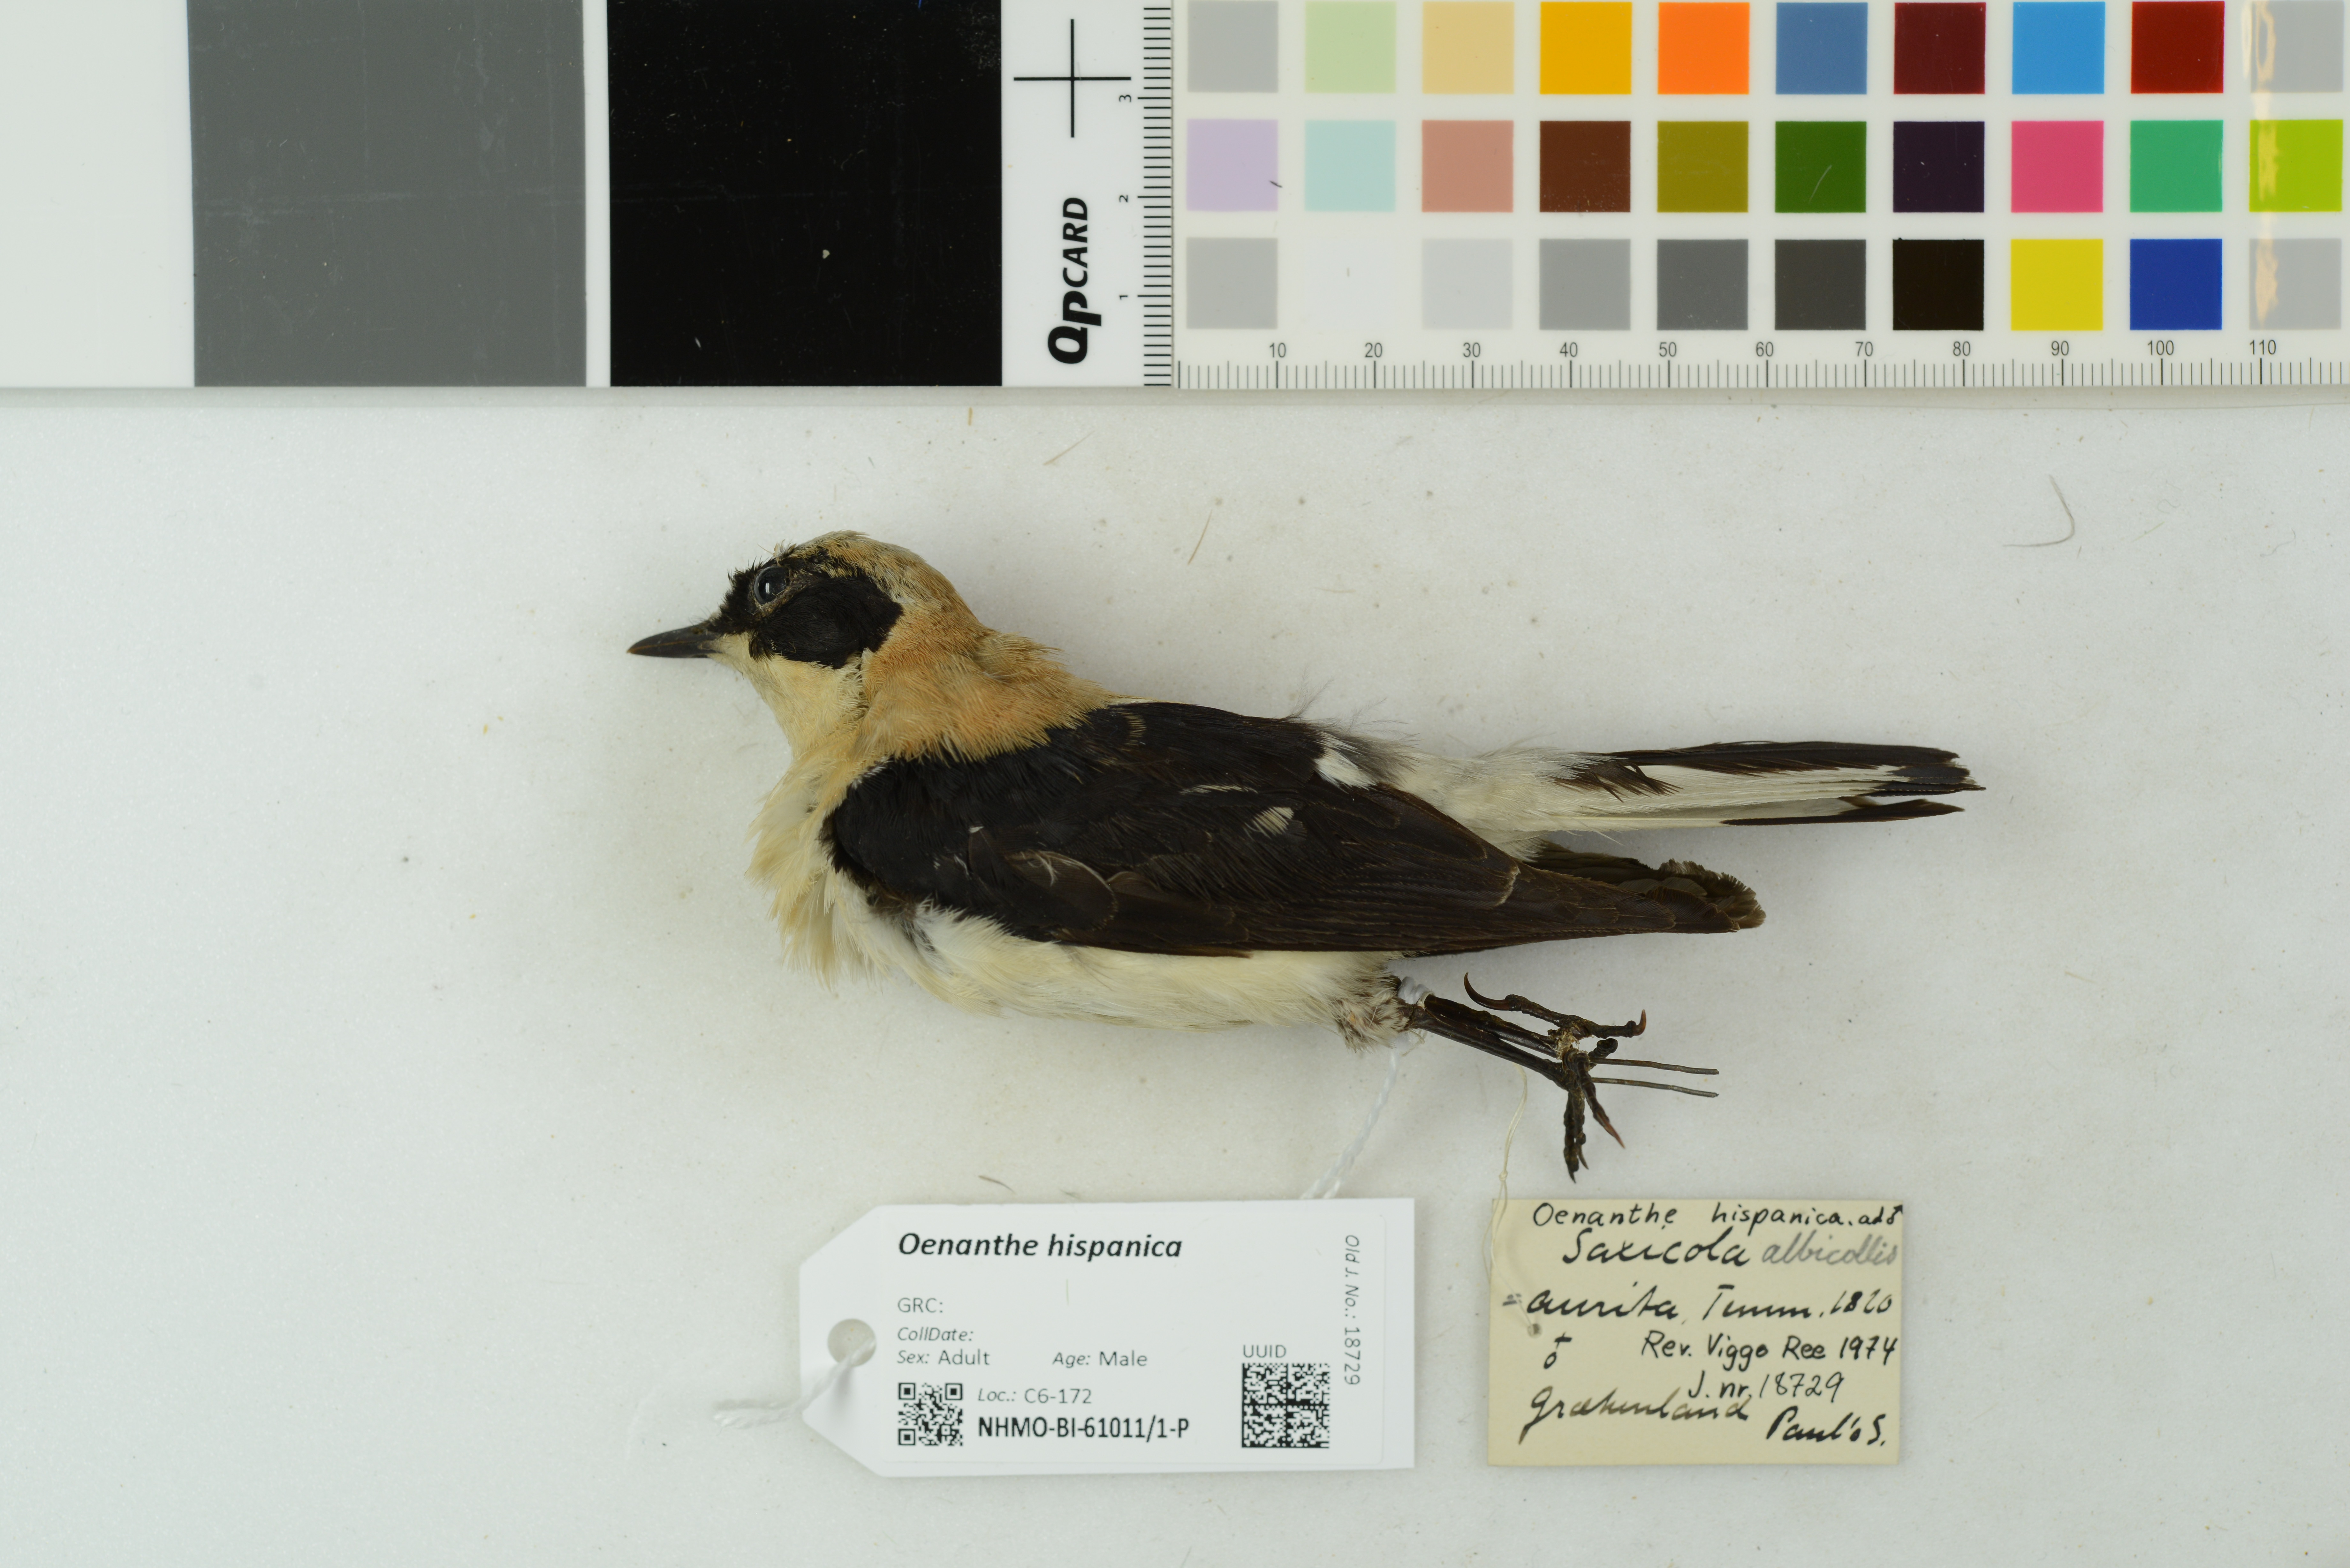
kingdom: Animalia
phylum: Chordata
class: Aves
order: Passeriformes
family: Muscicapidae
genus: Oenanthe
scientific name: Oenanthe hispanica
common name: Black-eared wheatear
